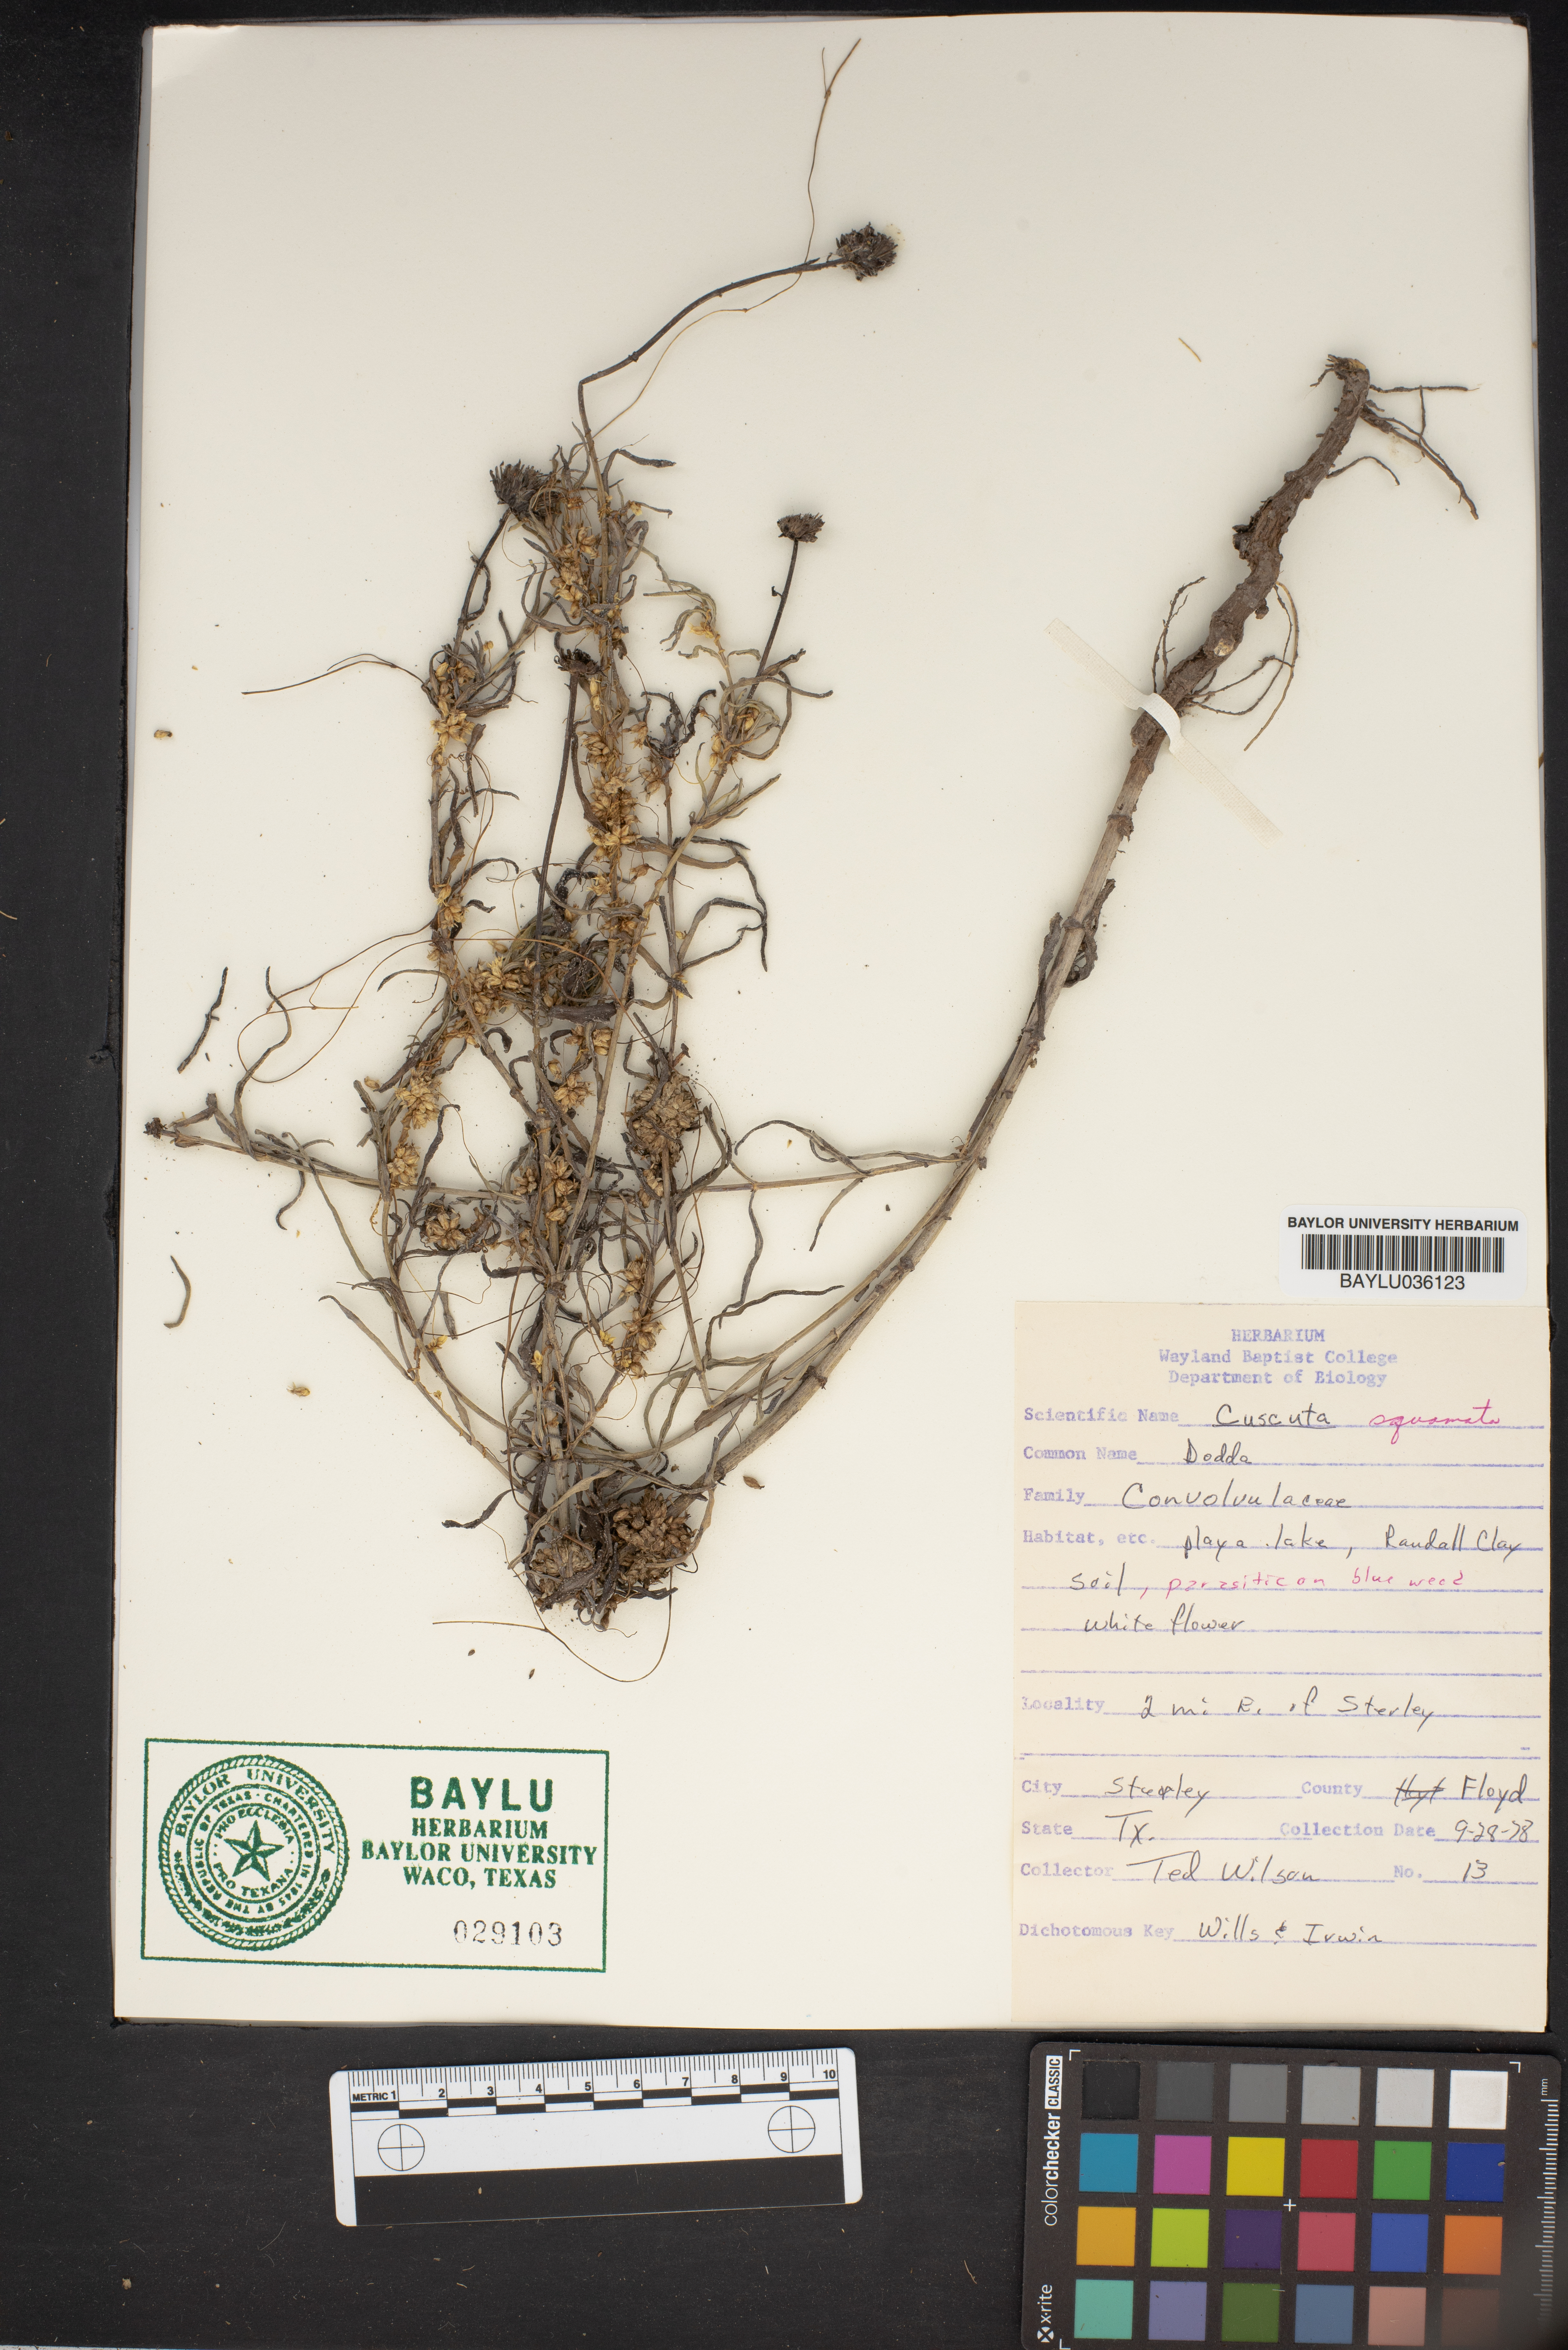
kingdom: Plantae
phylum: Tracheophyta
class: Magnoliopsida
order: Solanales
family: Convolvulaceae
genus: Cuscuta
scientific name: Cuscuta squamata
